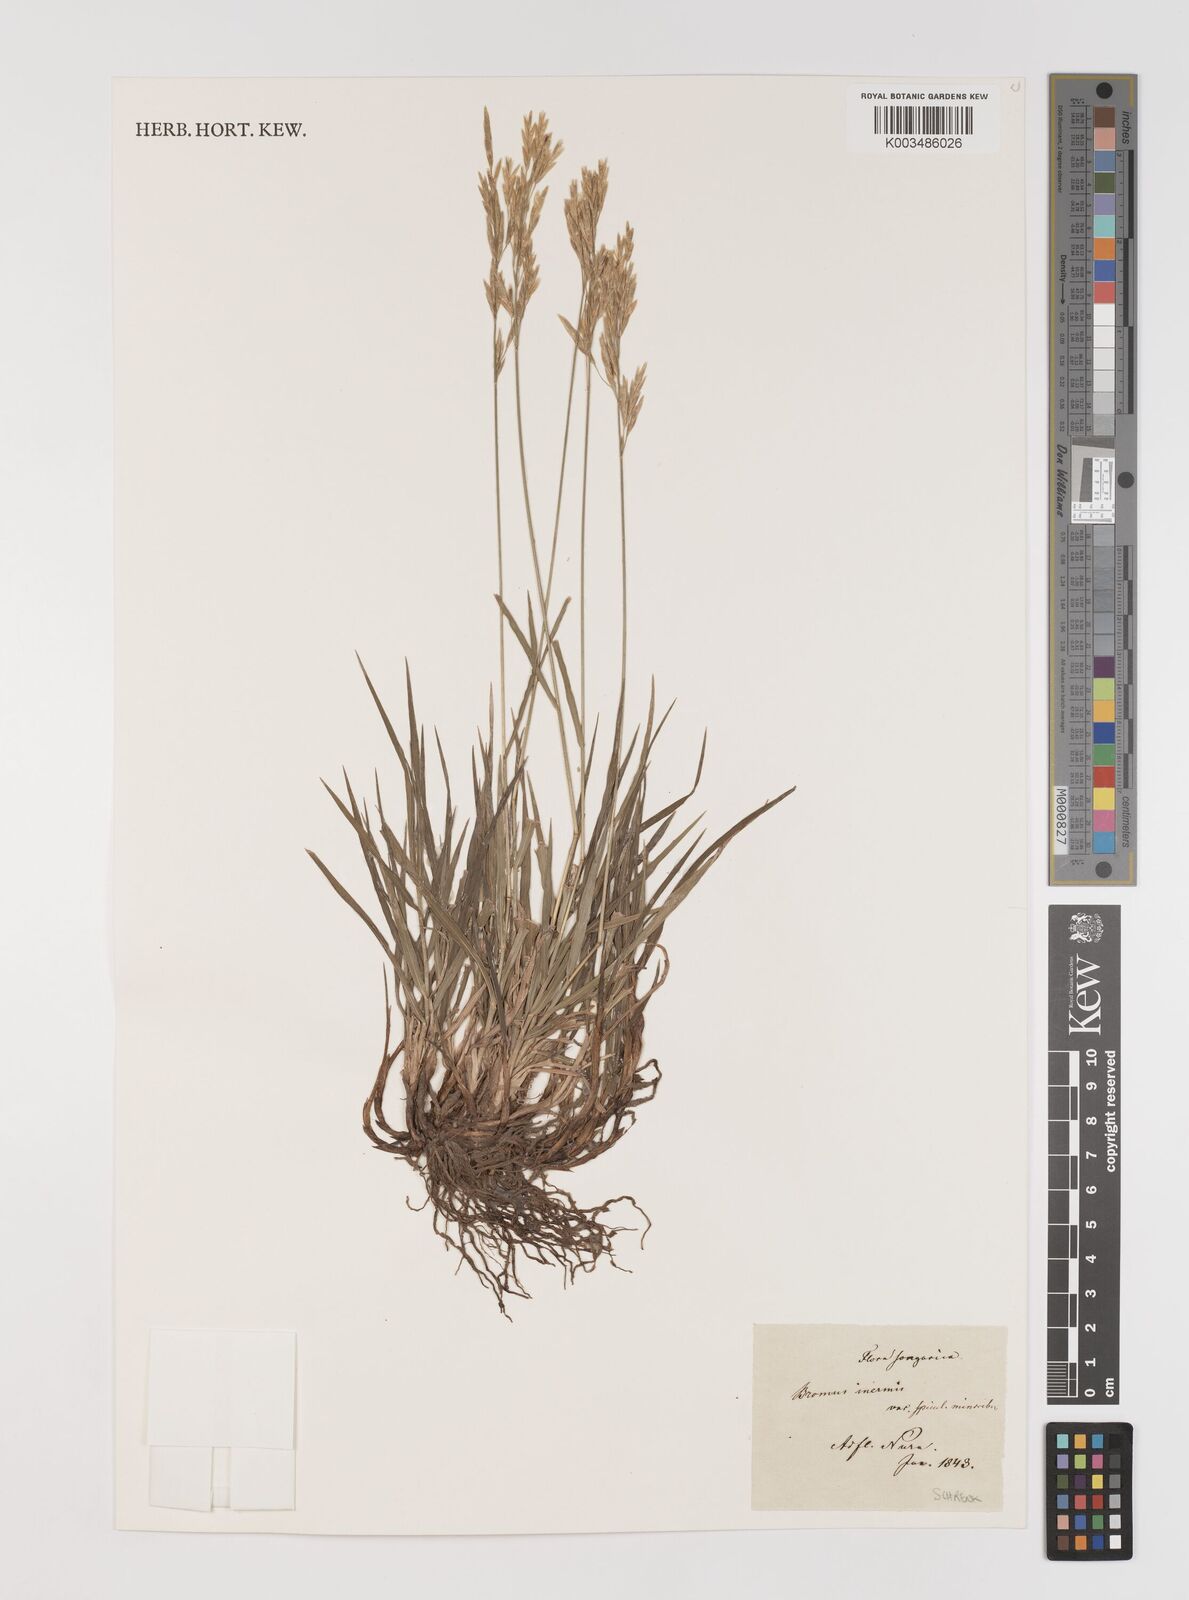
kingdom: Plantae
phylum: Tracheophyta
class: Liliopsida
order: Poales
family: Poaceae
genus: Bromus
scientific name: Bromus inermis
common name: Smooth brome
